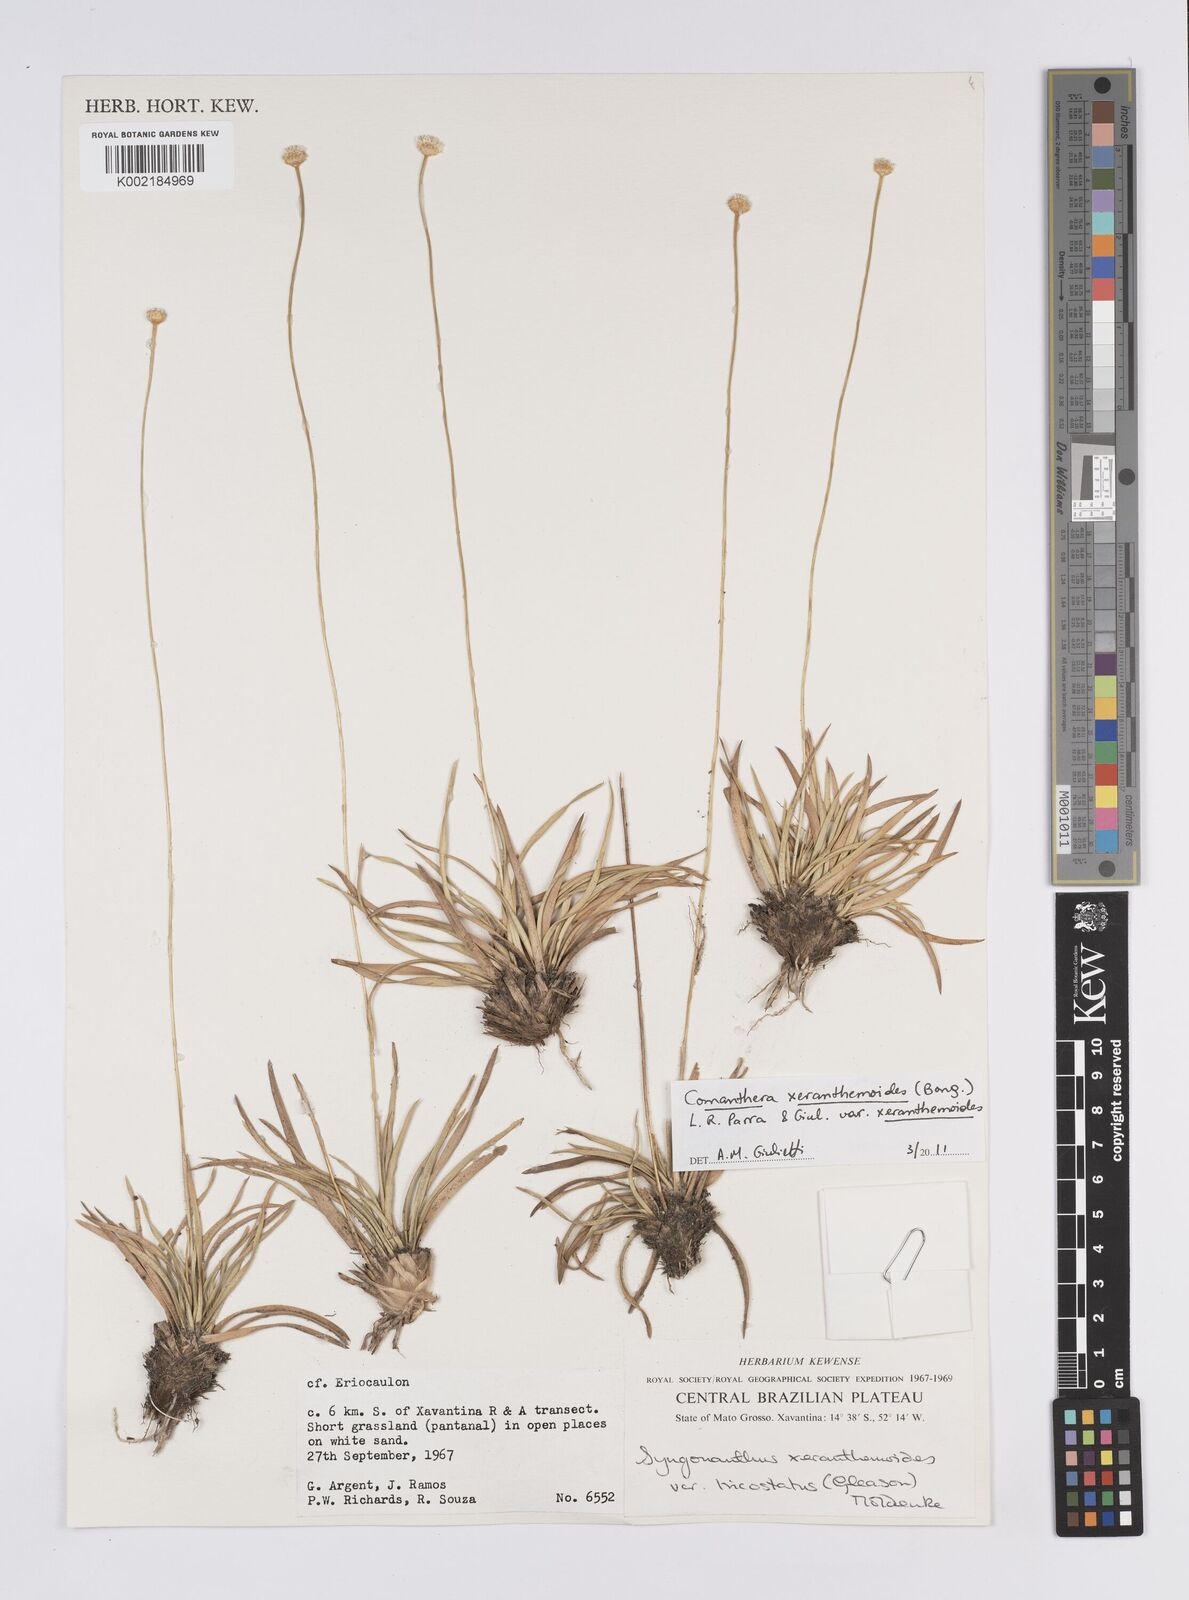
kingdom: Plantae
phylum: Tracheophyta
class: Liliopsida
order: Poales
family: Eriocaulaceae
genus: Comanthera
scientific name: Comanthera xeranthemoides
